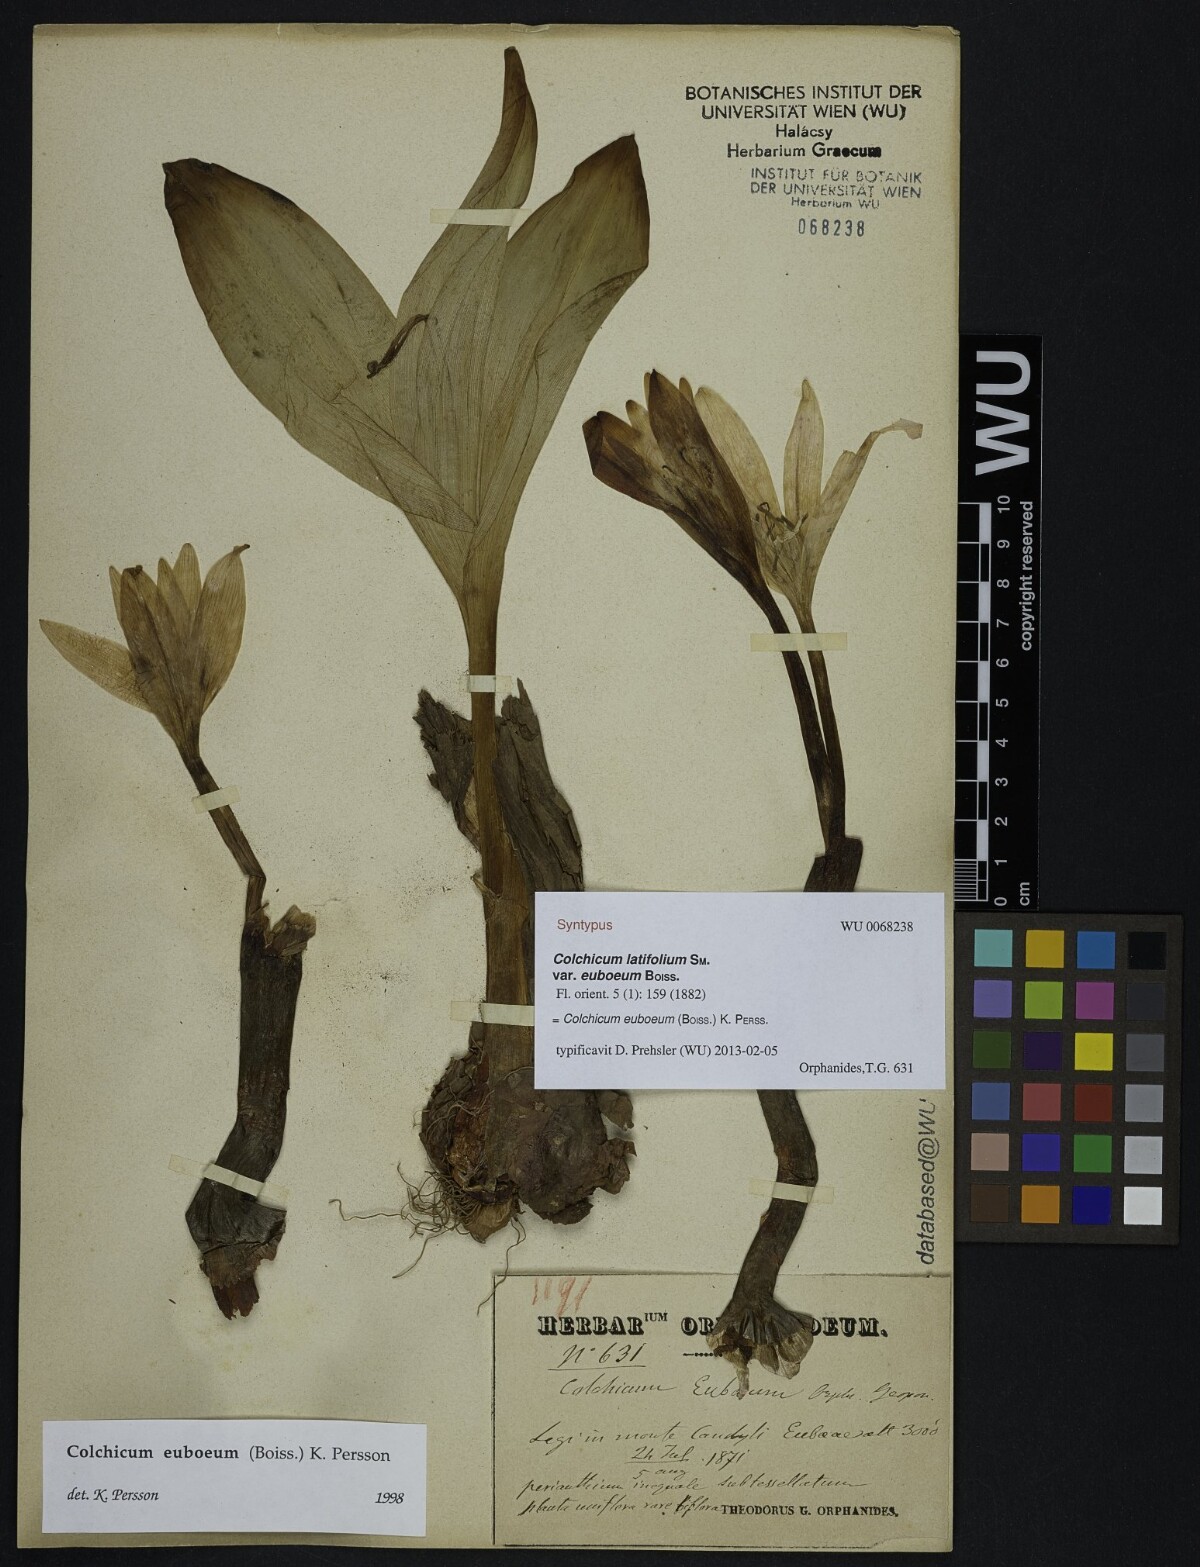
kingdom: Plantae
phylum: Tracheophyta
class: Liliopsida
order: Liliales
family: Colchicaceae
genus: Colchicum
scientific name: Colchicum euboeum
